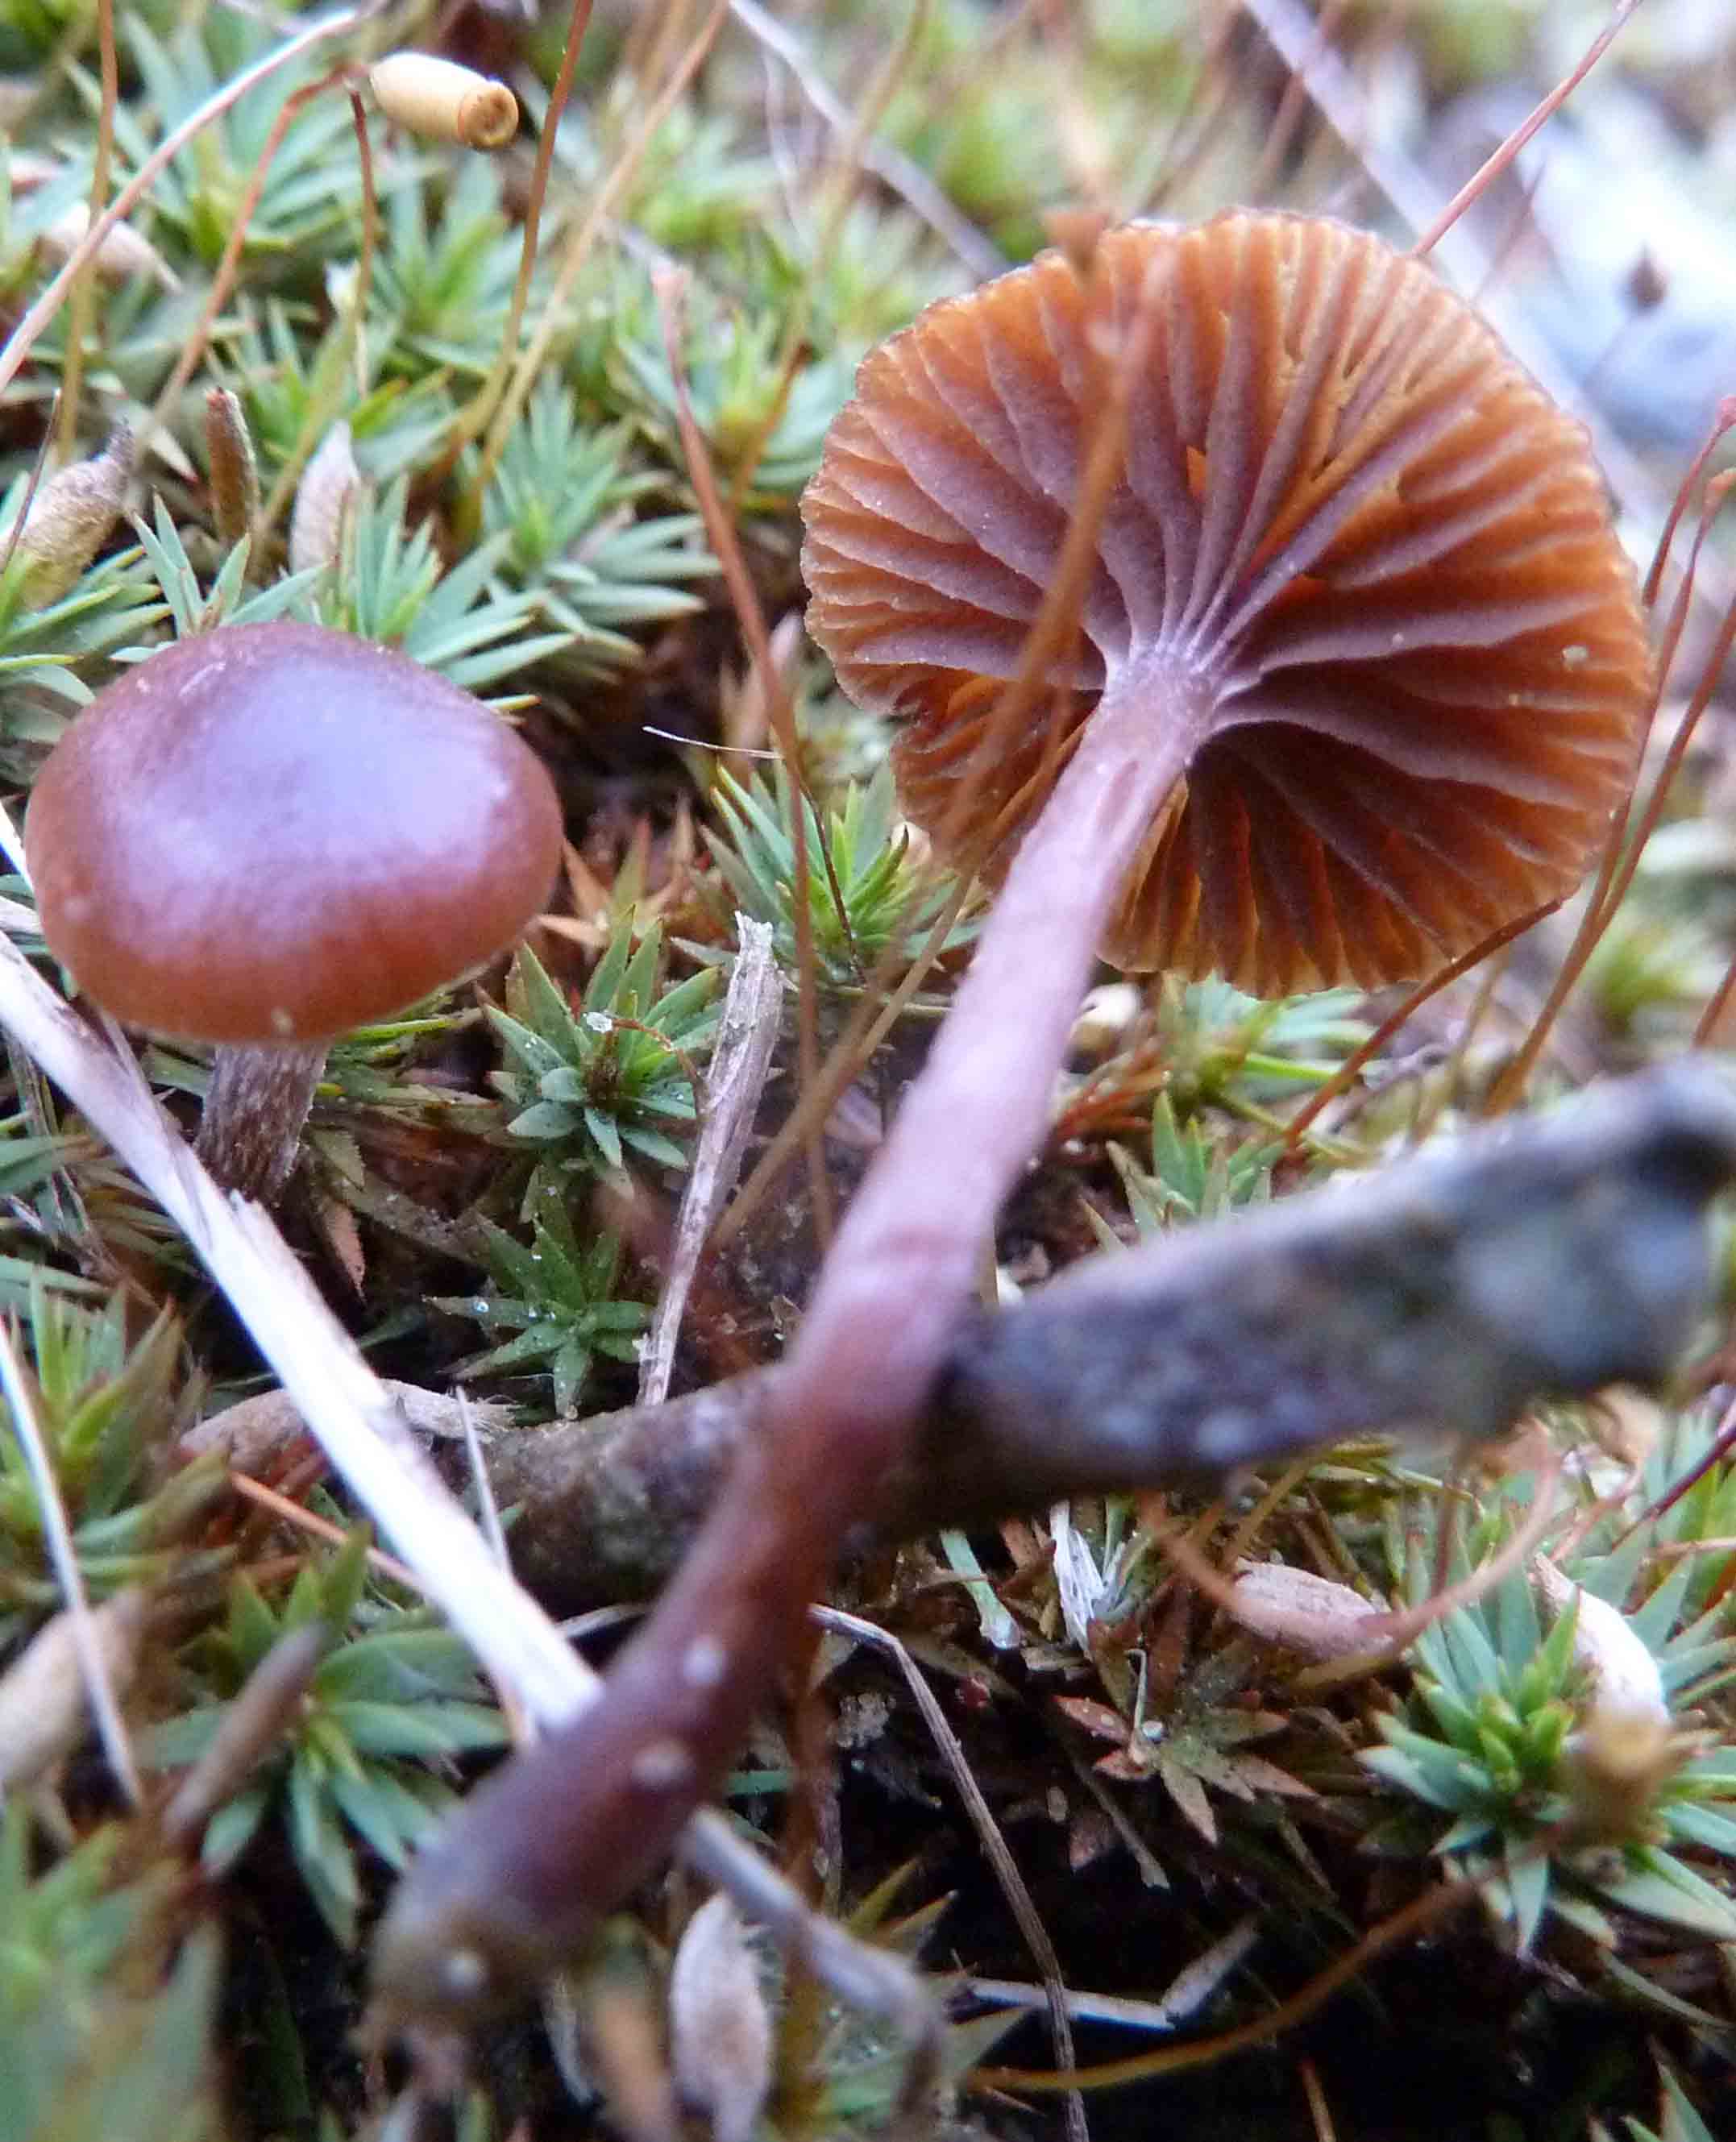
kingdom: Fungi
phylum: Basidiomycota
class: Agaricomycetes
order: Agaricales
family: Strophariaceae
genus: Deconica
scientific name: Deconica montana
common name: rødbrun stråhat
